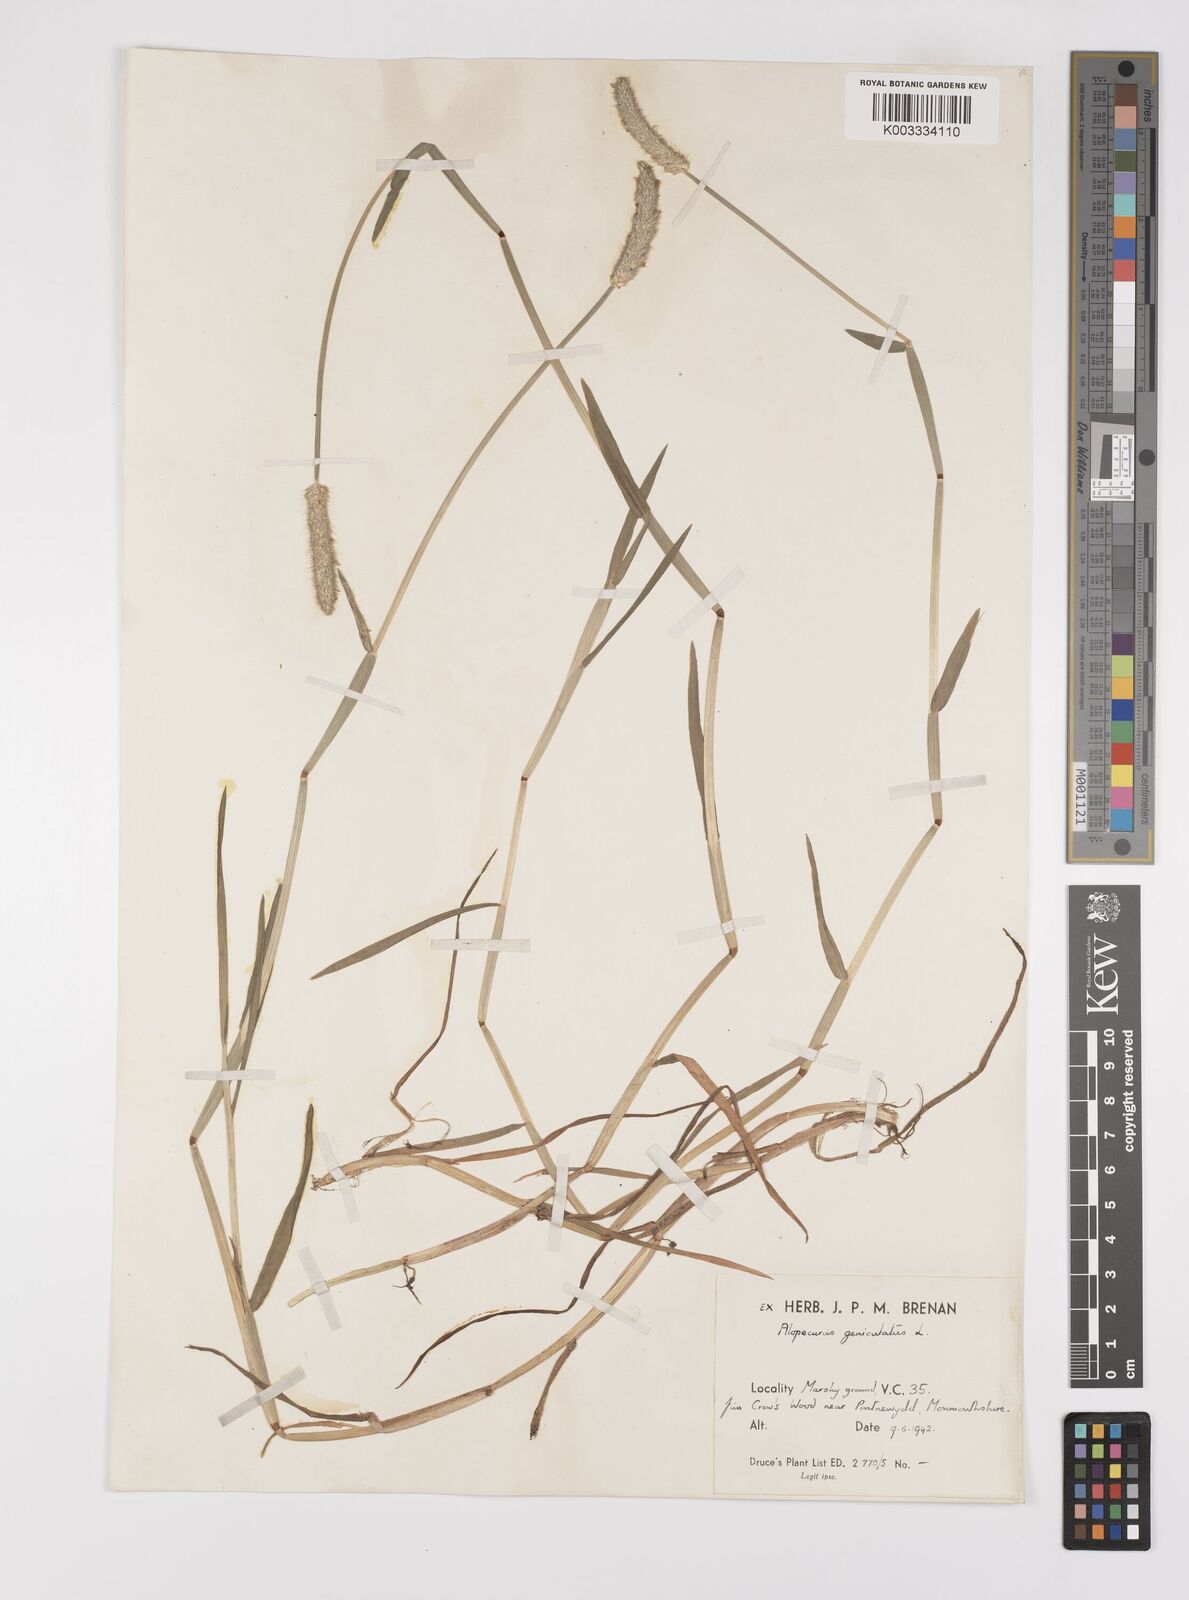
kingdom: Plantae
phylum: Tracheophyta
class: Liliopsida
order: Poales
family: Poaceae
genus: Alopecurus
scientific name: Alopecurus geniculatus
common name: Water foxtail
